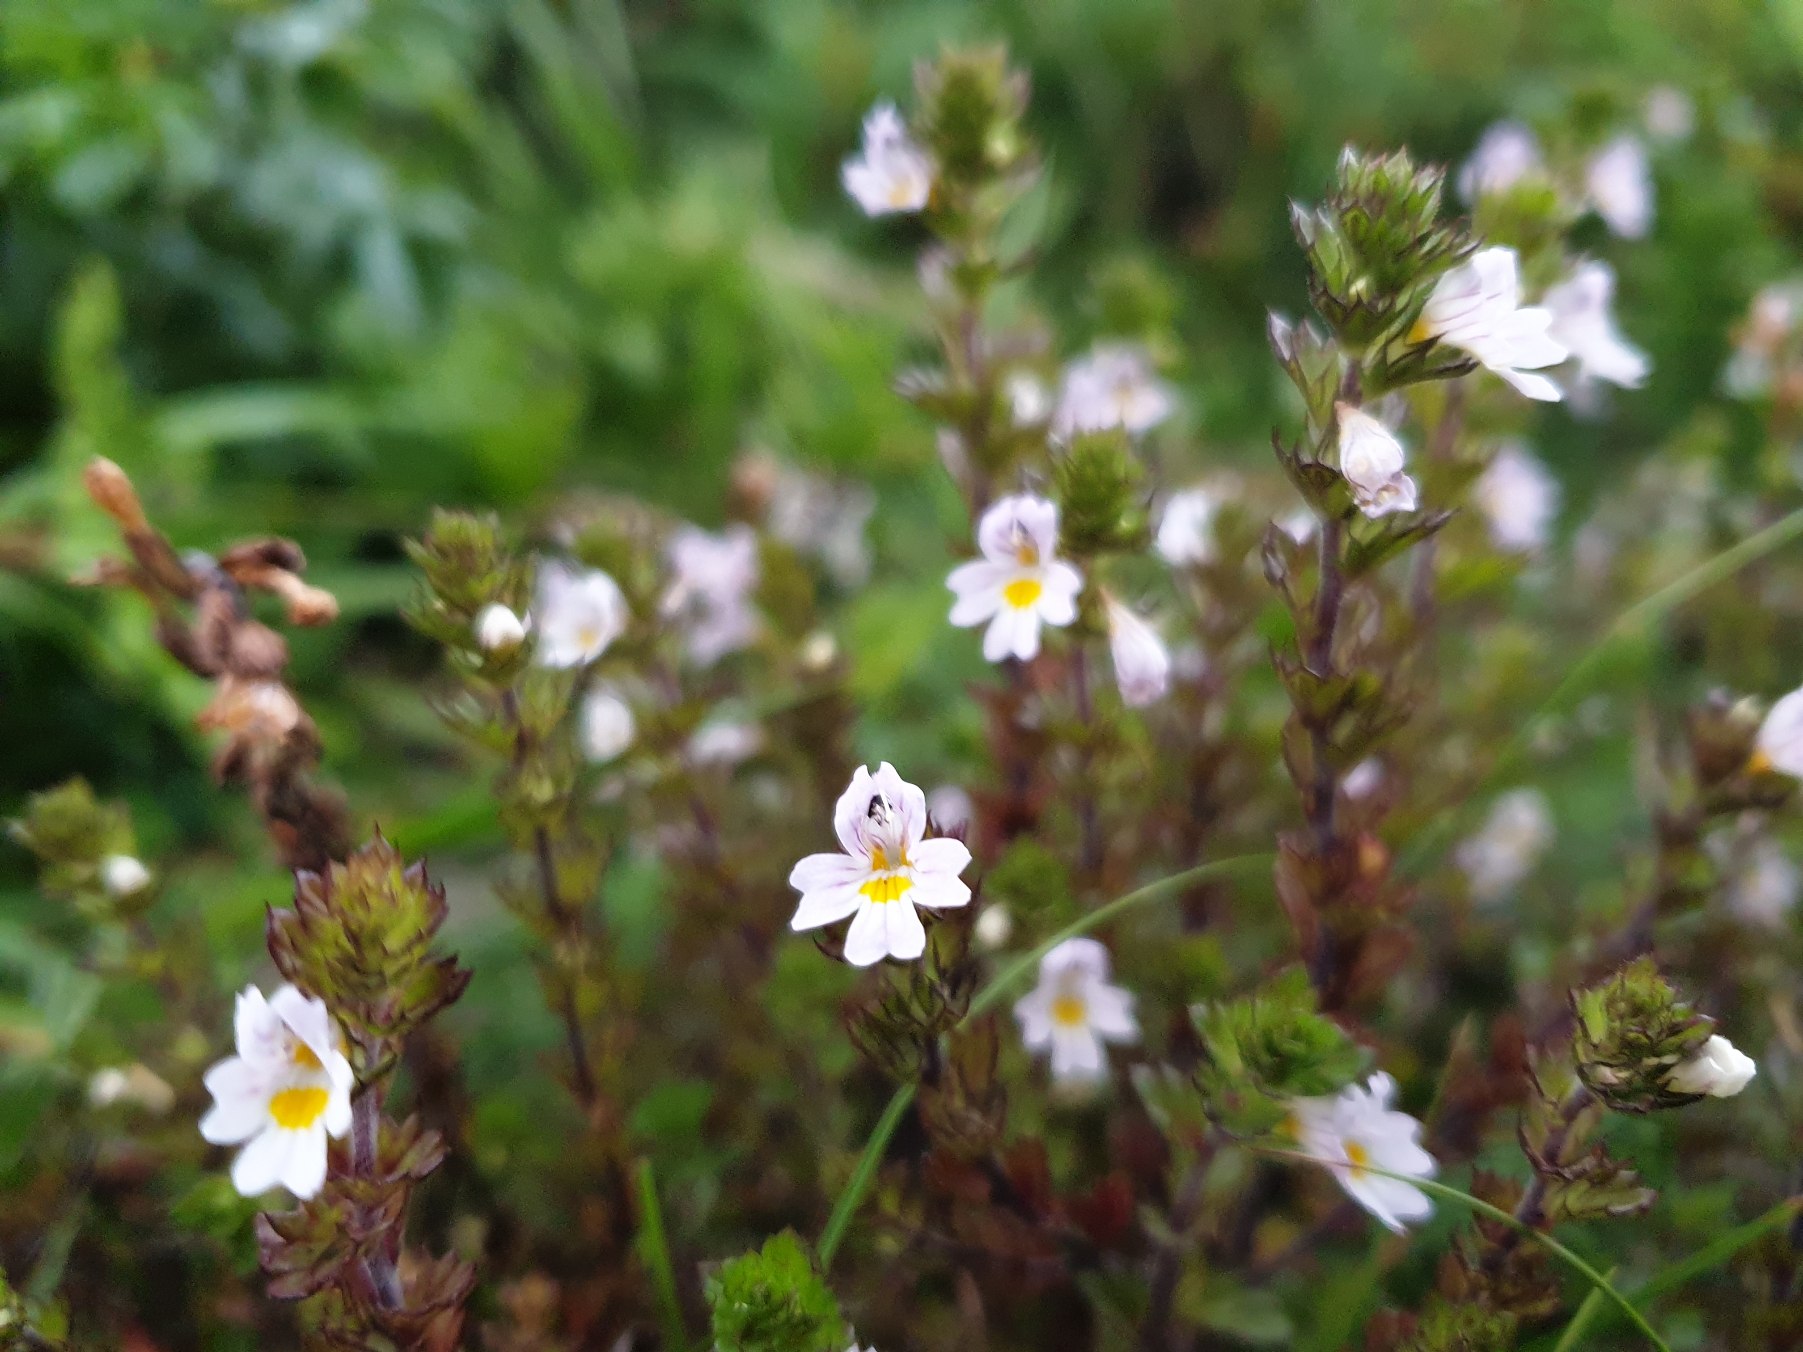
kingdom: Plantae
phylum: Tracheophyta
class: Magnoliopsida
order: Lamiales
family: Orobanchaceae
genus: Euphrasia
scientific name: Euphrasia stricta
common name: Spids øjentrøst
